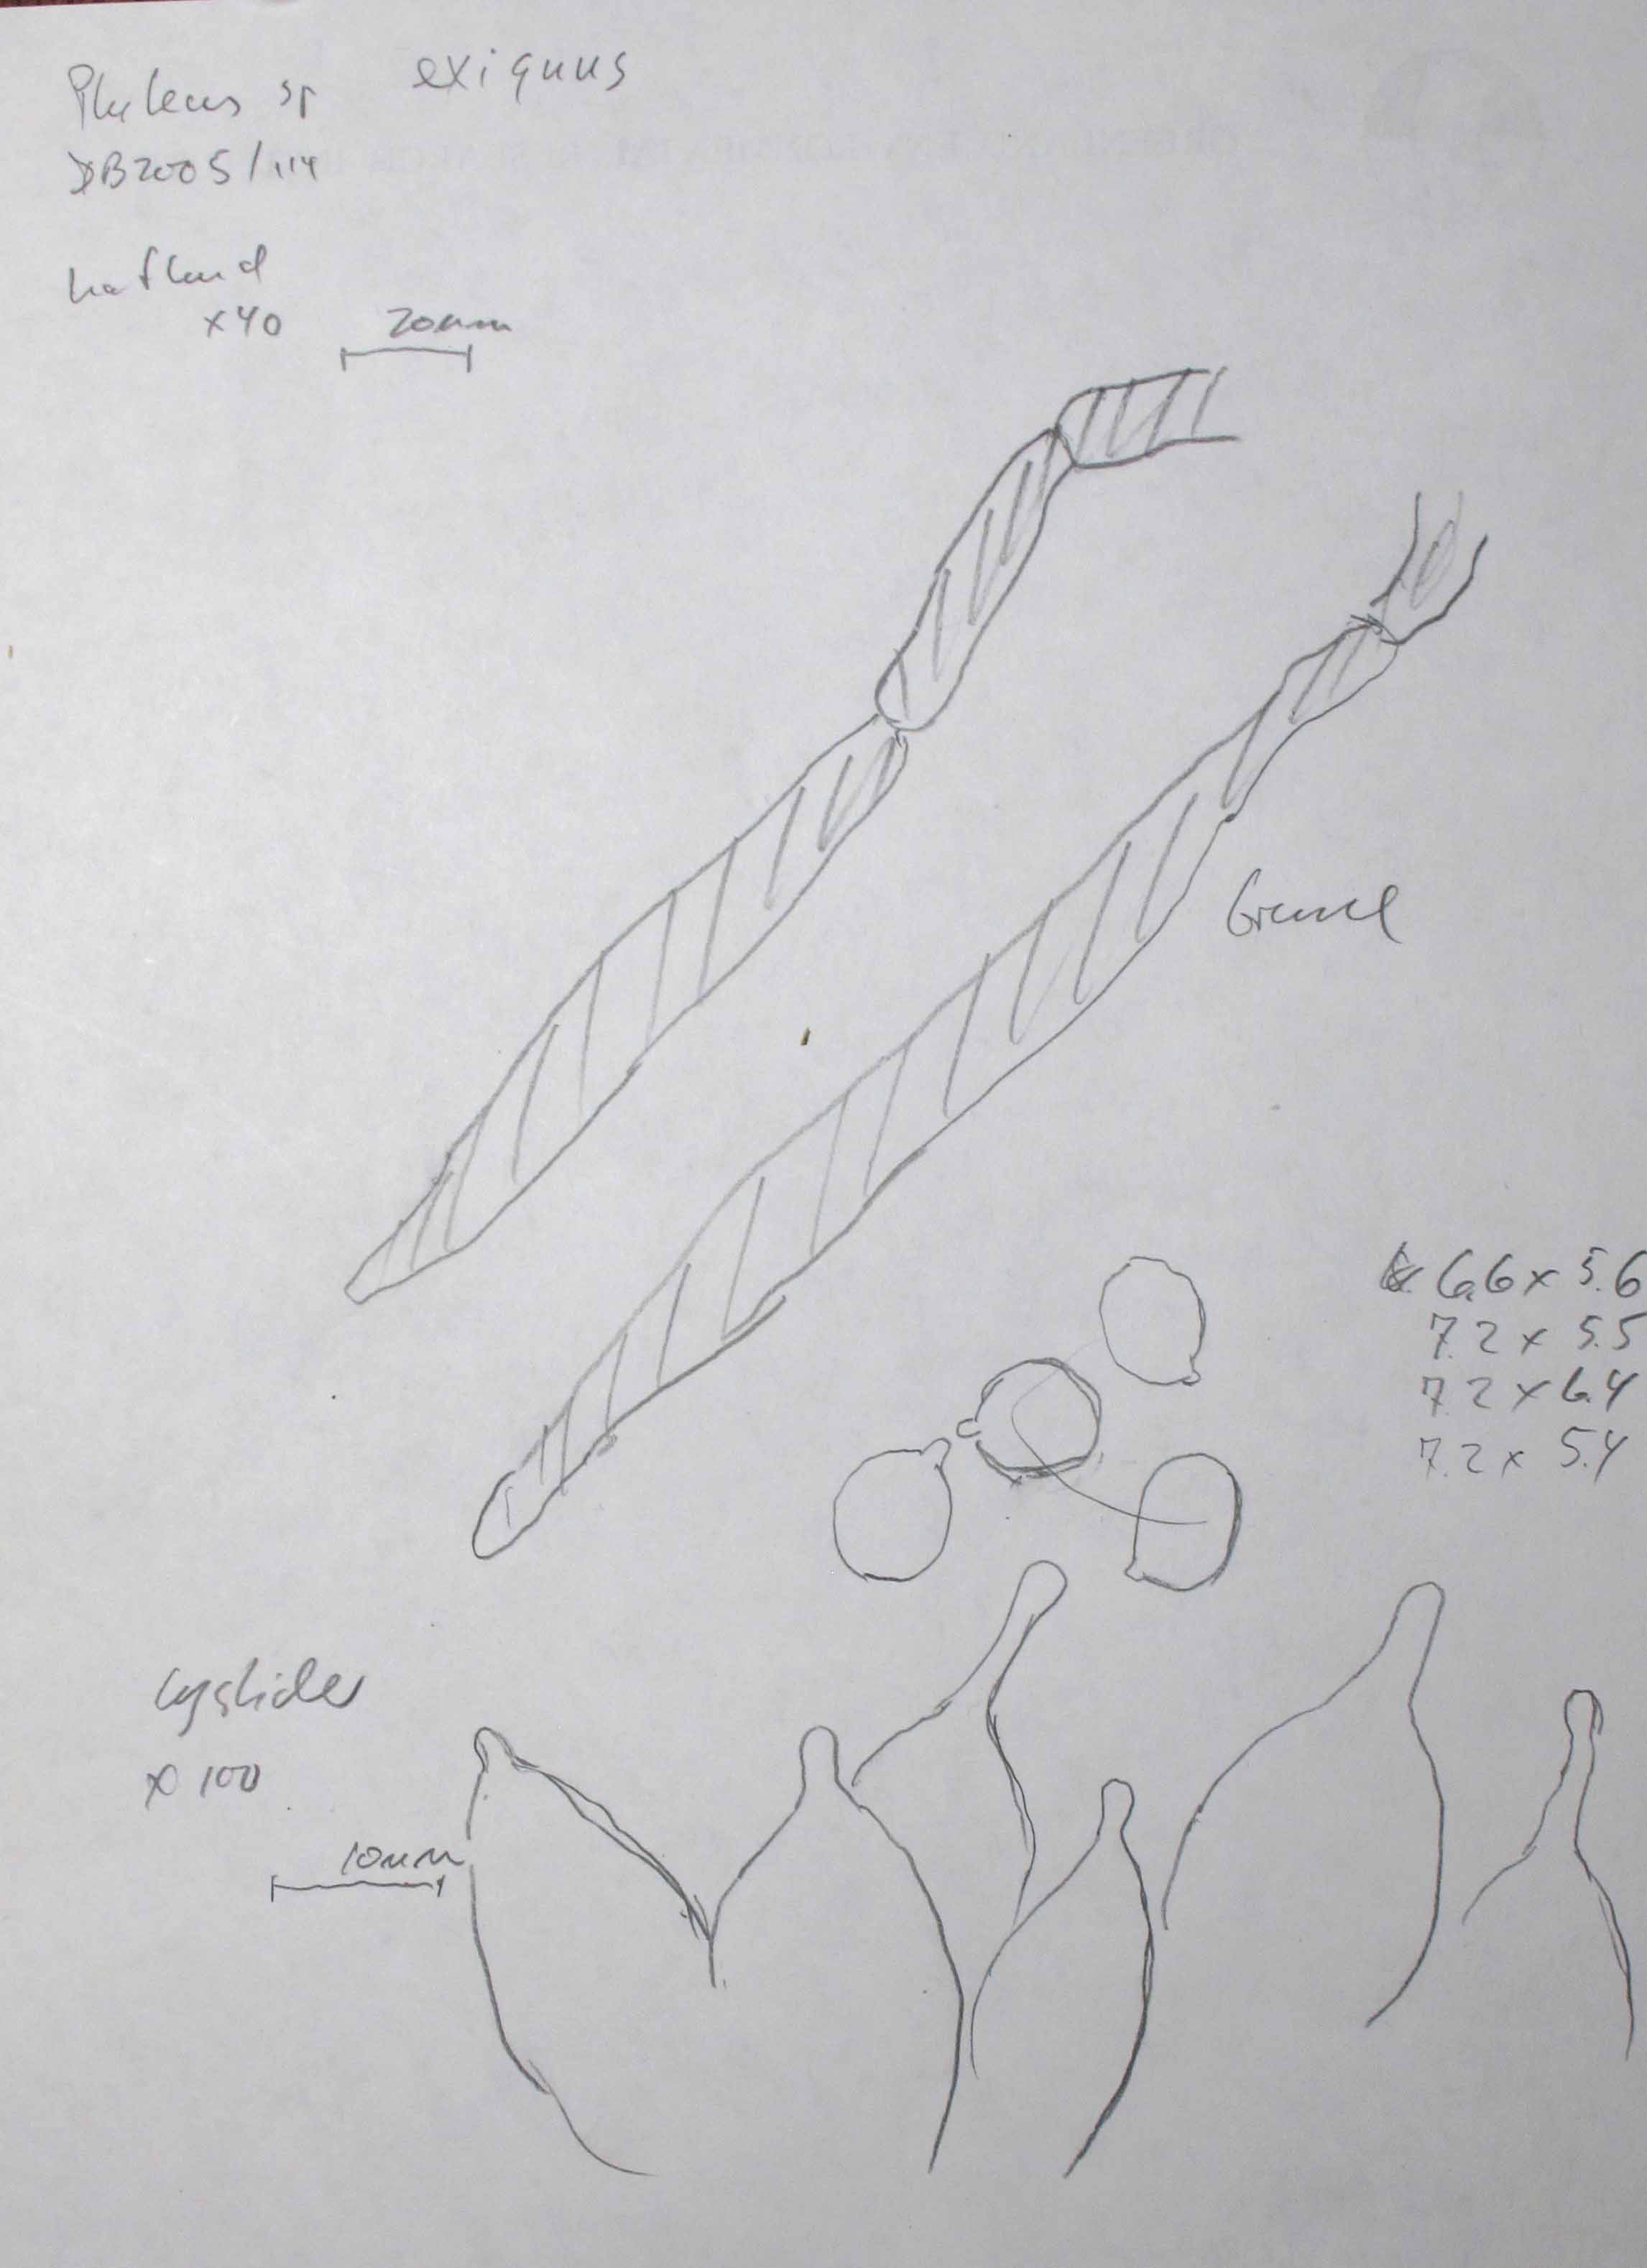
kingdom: Fungi
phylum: Basidiomycota
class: Agaricomycetes
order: Agaricales
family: Pluteaceae
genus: Pluteus
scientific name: Pluteus exiguus
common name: finskællet skærmhat
